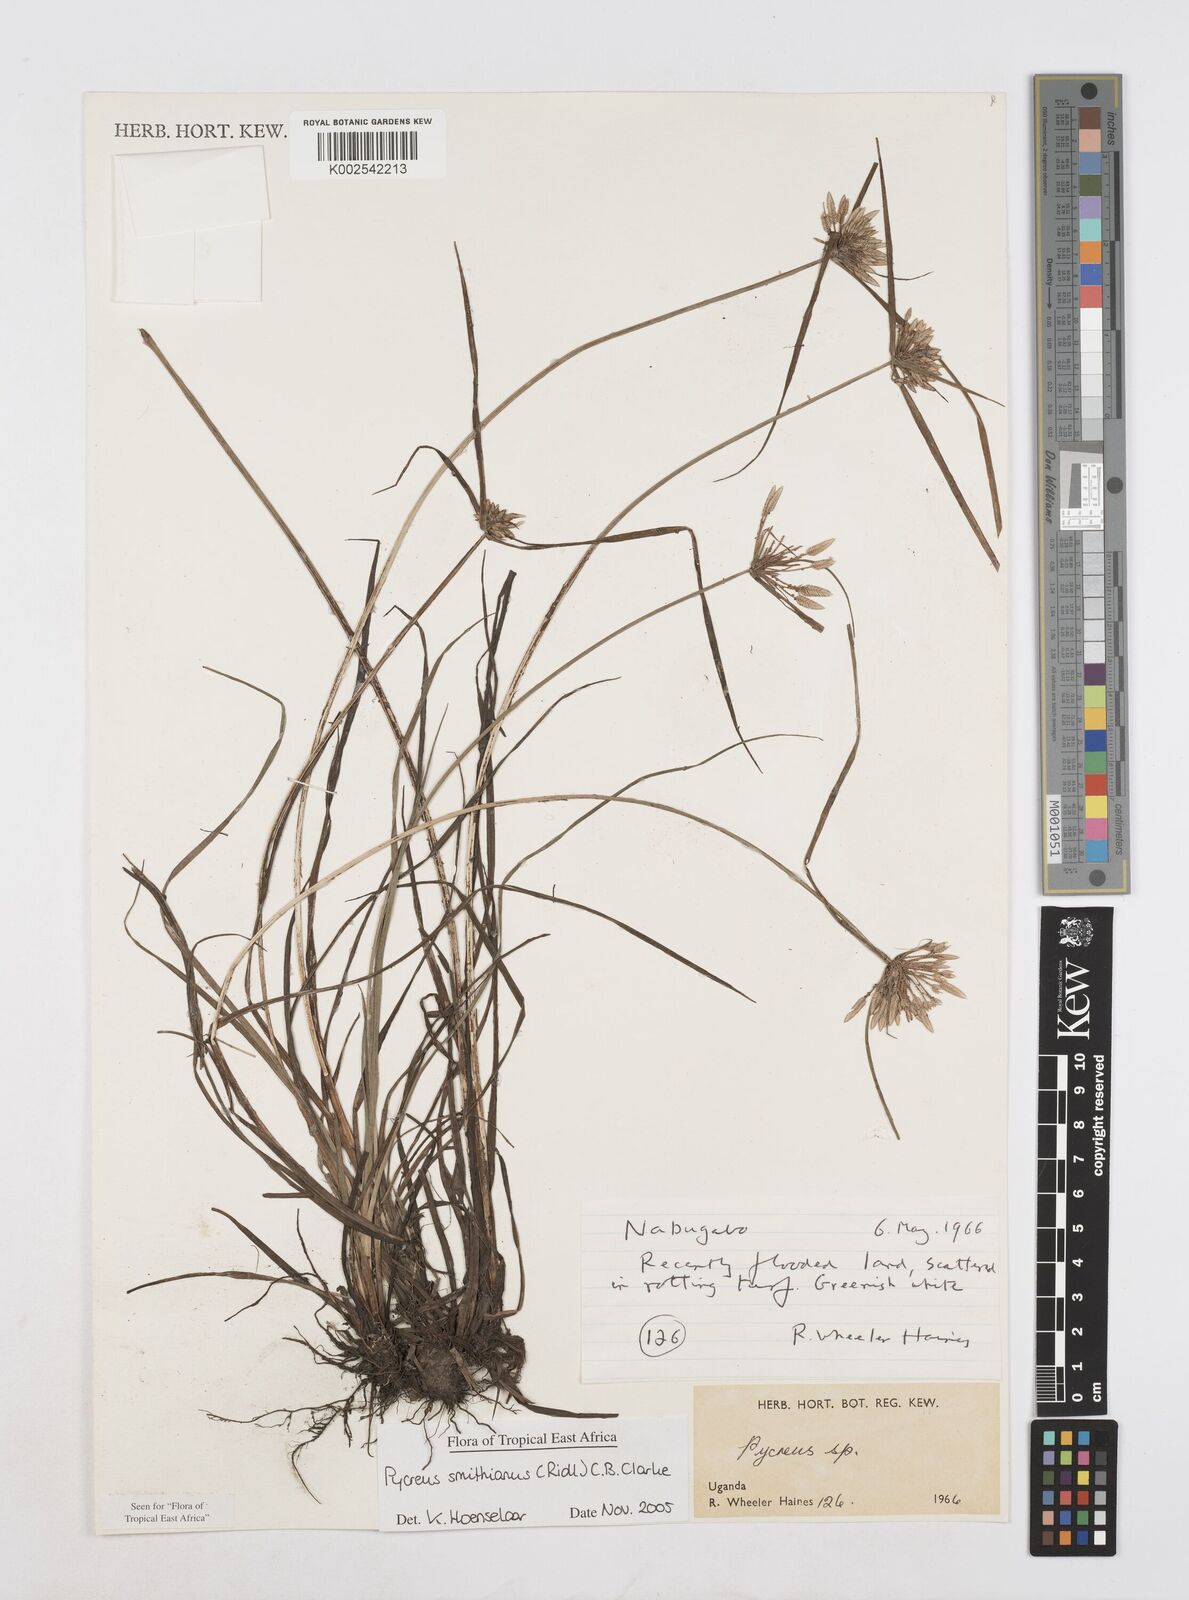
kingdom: Plantae
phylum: Tracheophyta
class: Liliopsida
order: Poales
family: Cyperaceae
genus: Cyperus
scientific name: Cyperus smithianus
